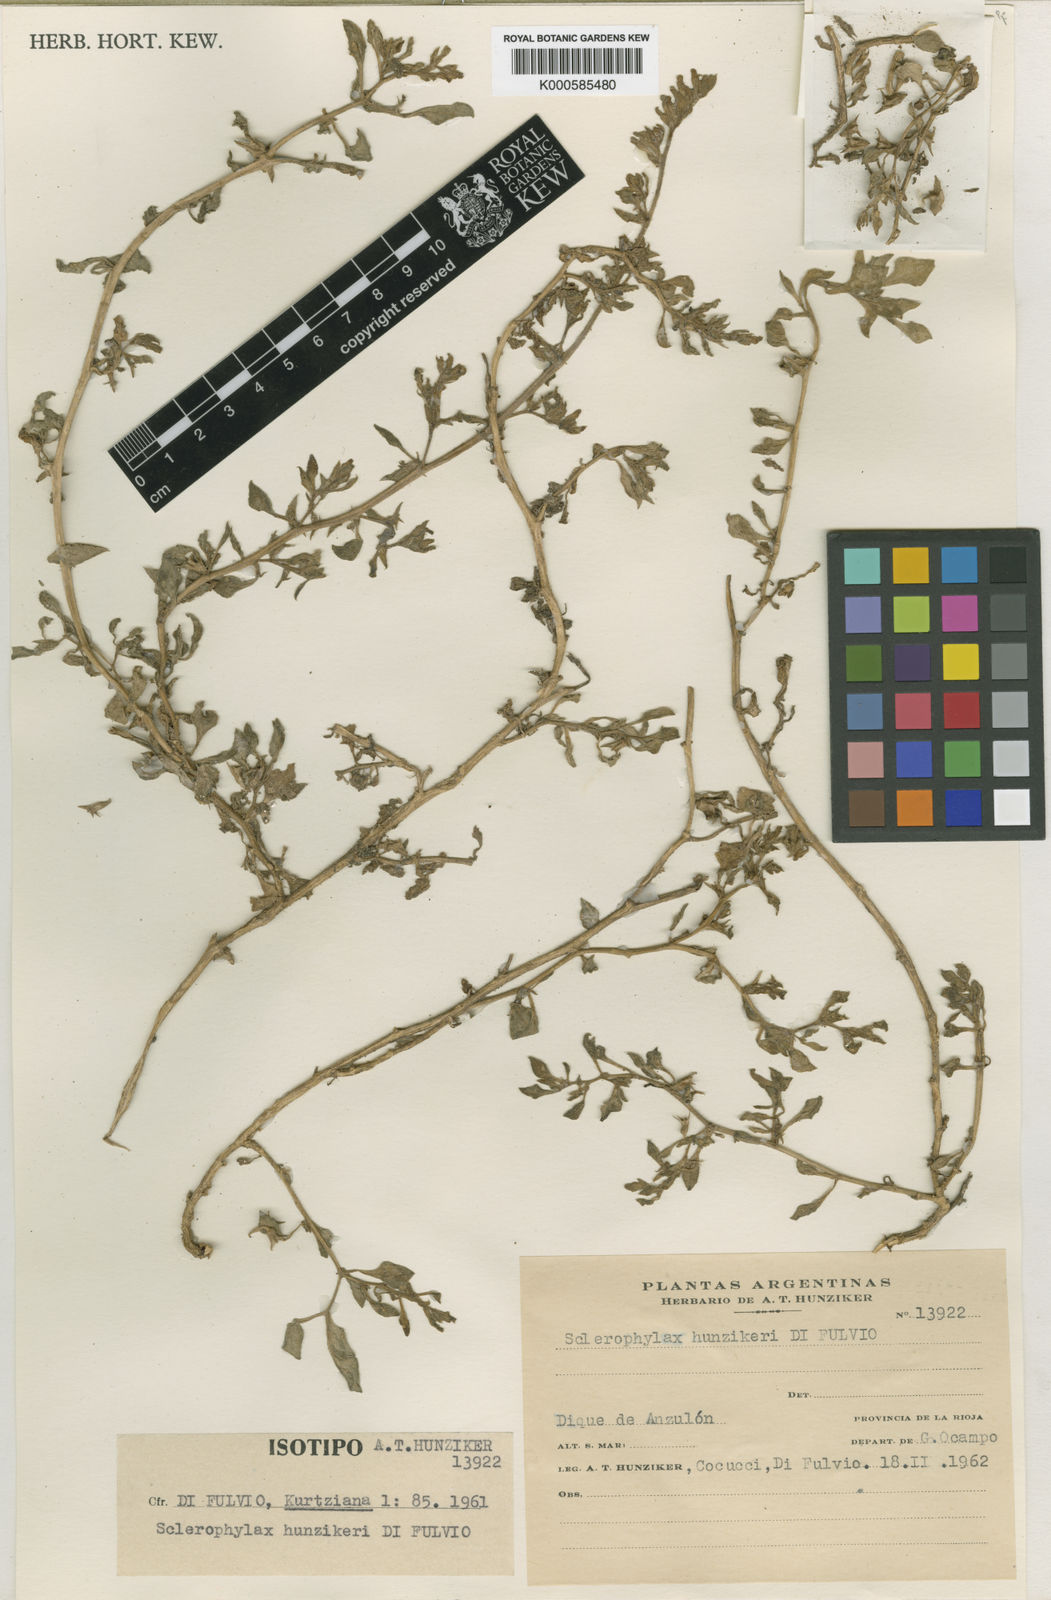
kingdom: Plantae
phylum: Tracheophyta
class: Magnoliopsida
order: Solanales
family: Solanaceae
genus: Sclerophylax
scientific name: Sclerophylax hunzikeri
